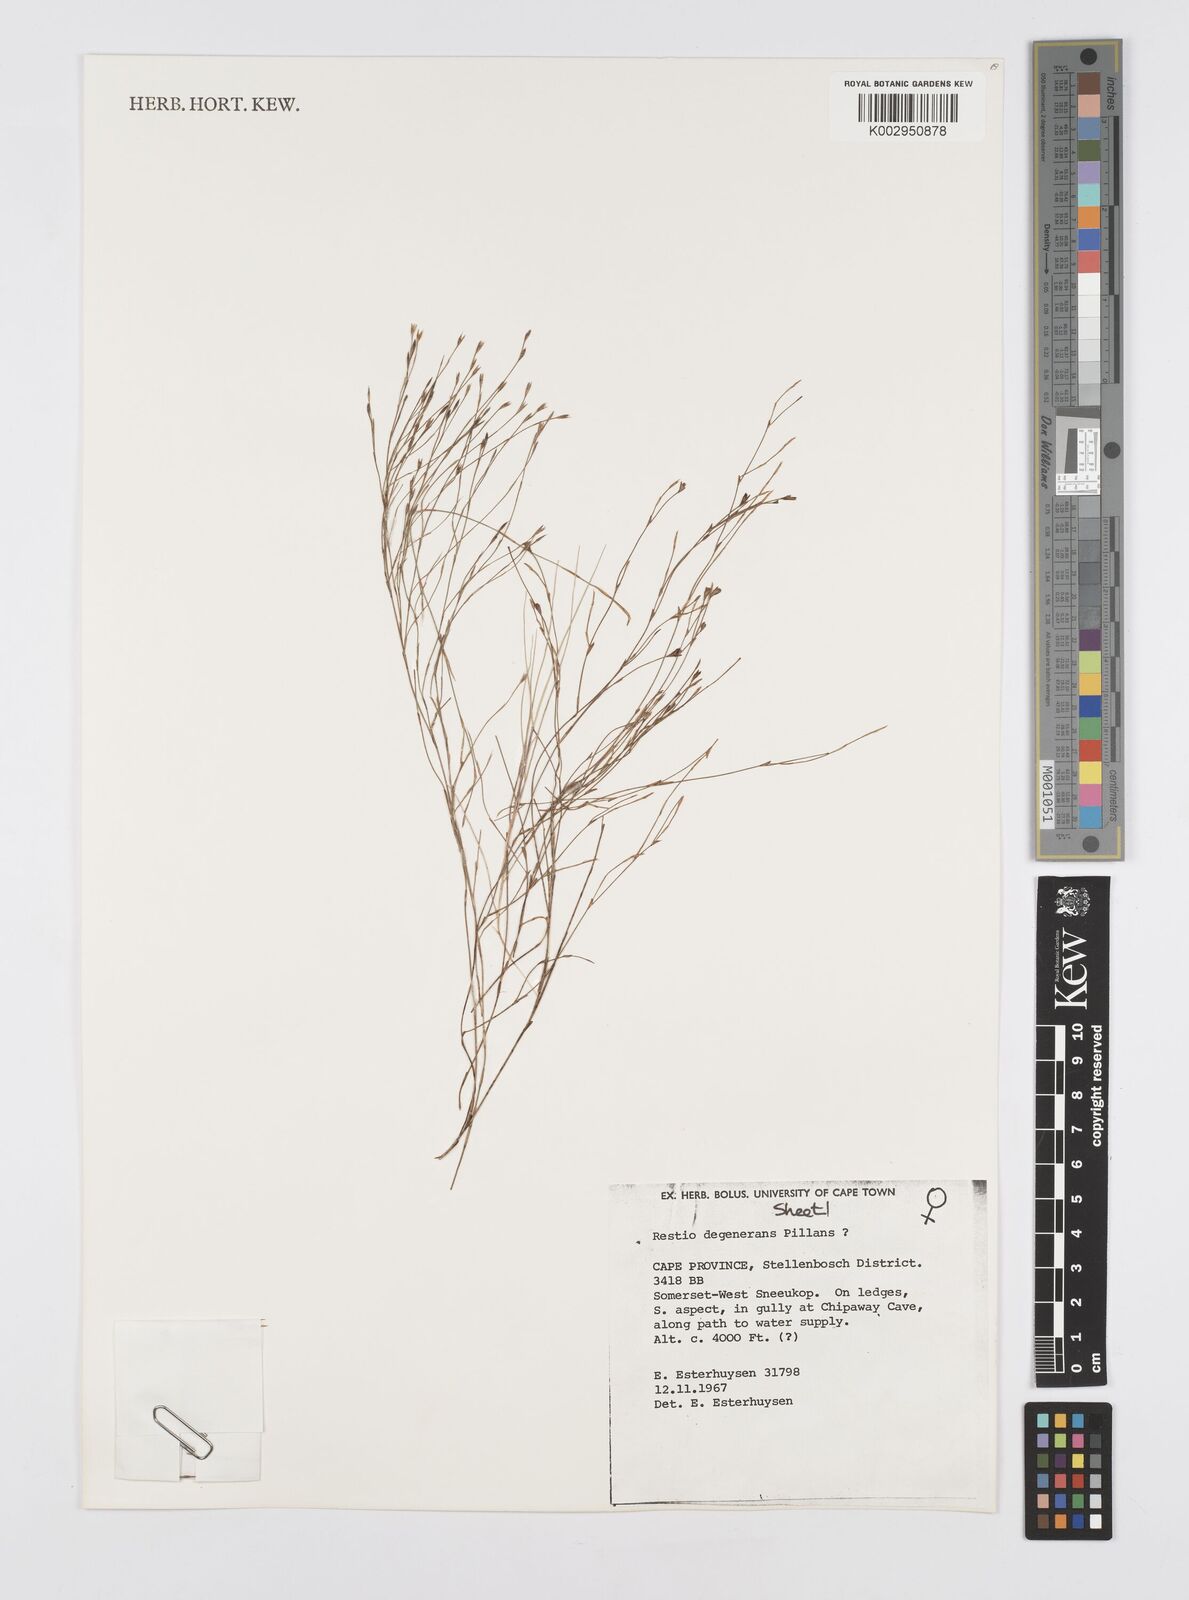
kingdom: Plantae
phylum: Tracheophyta
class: Liliopsida
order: Poales
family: Restionaceae
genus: Restio
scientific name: Restio degenerans
